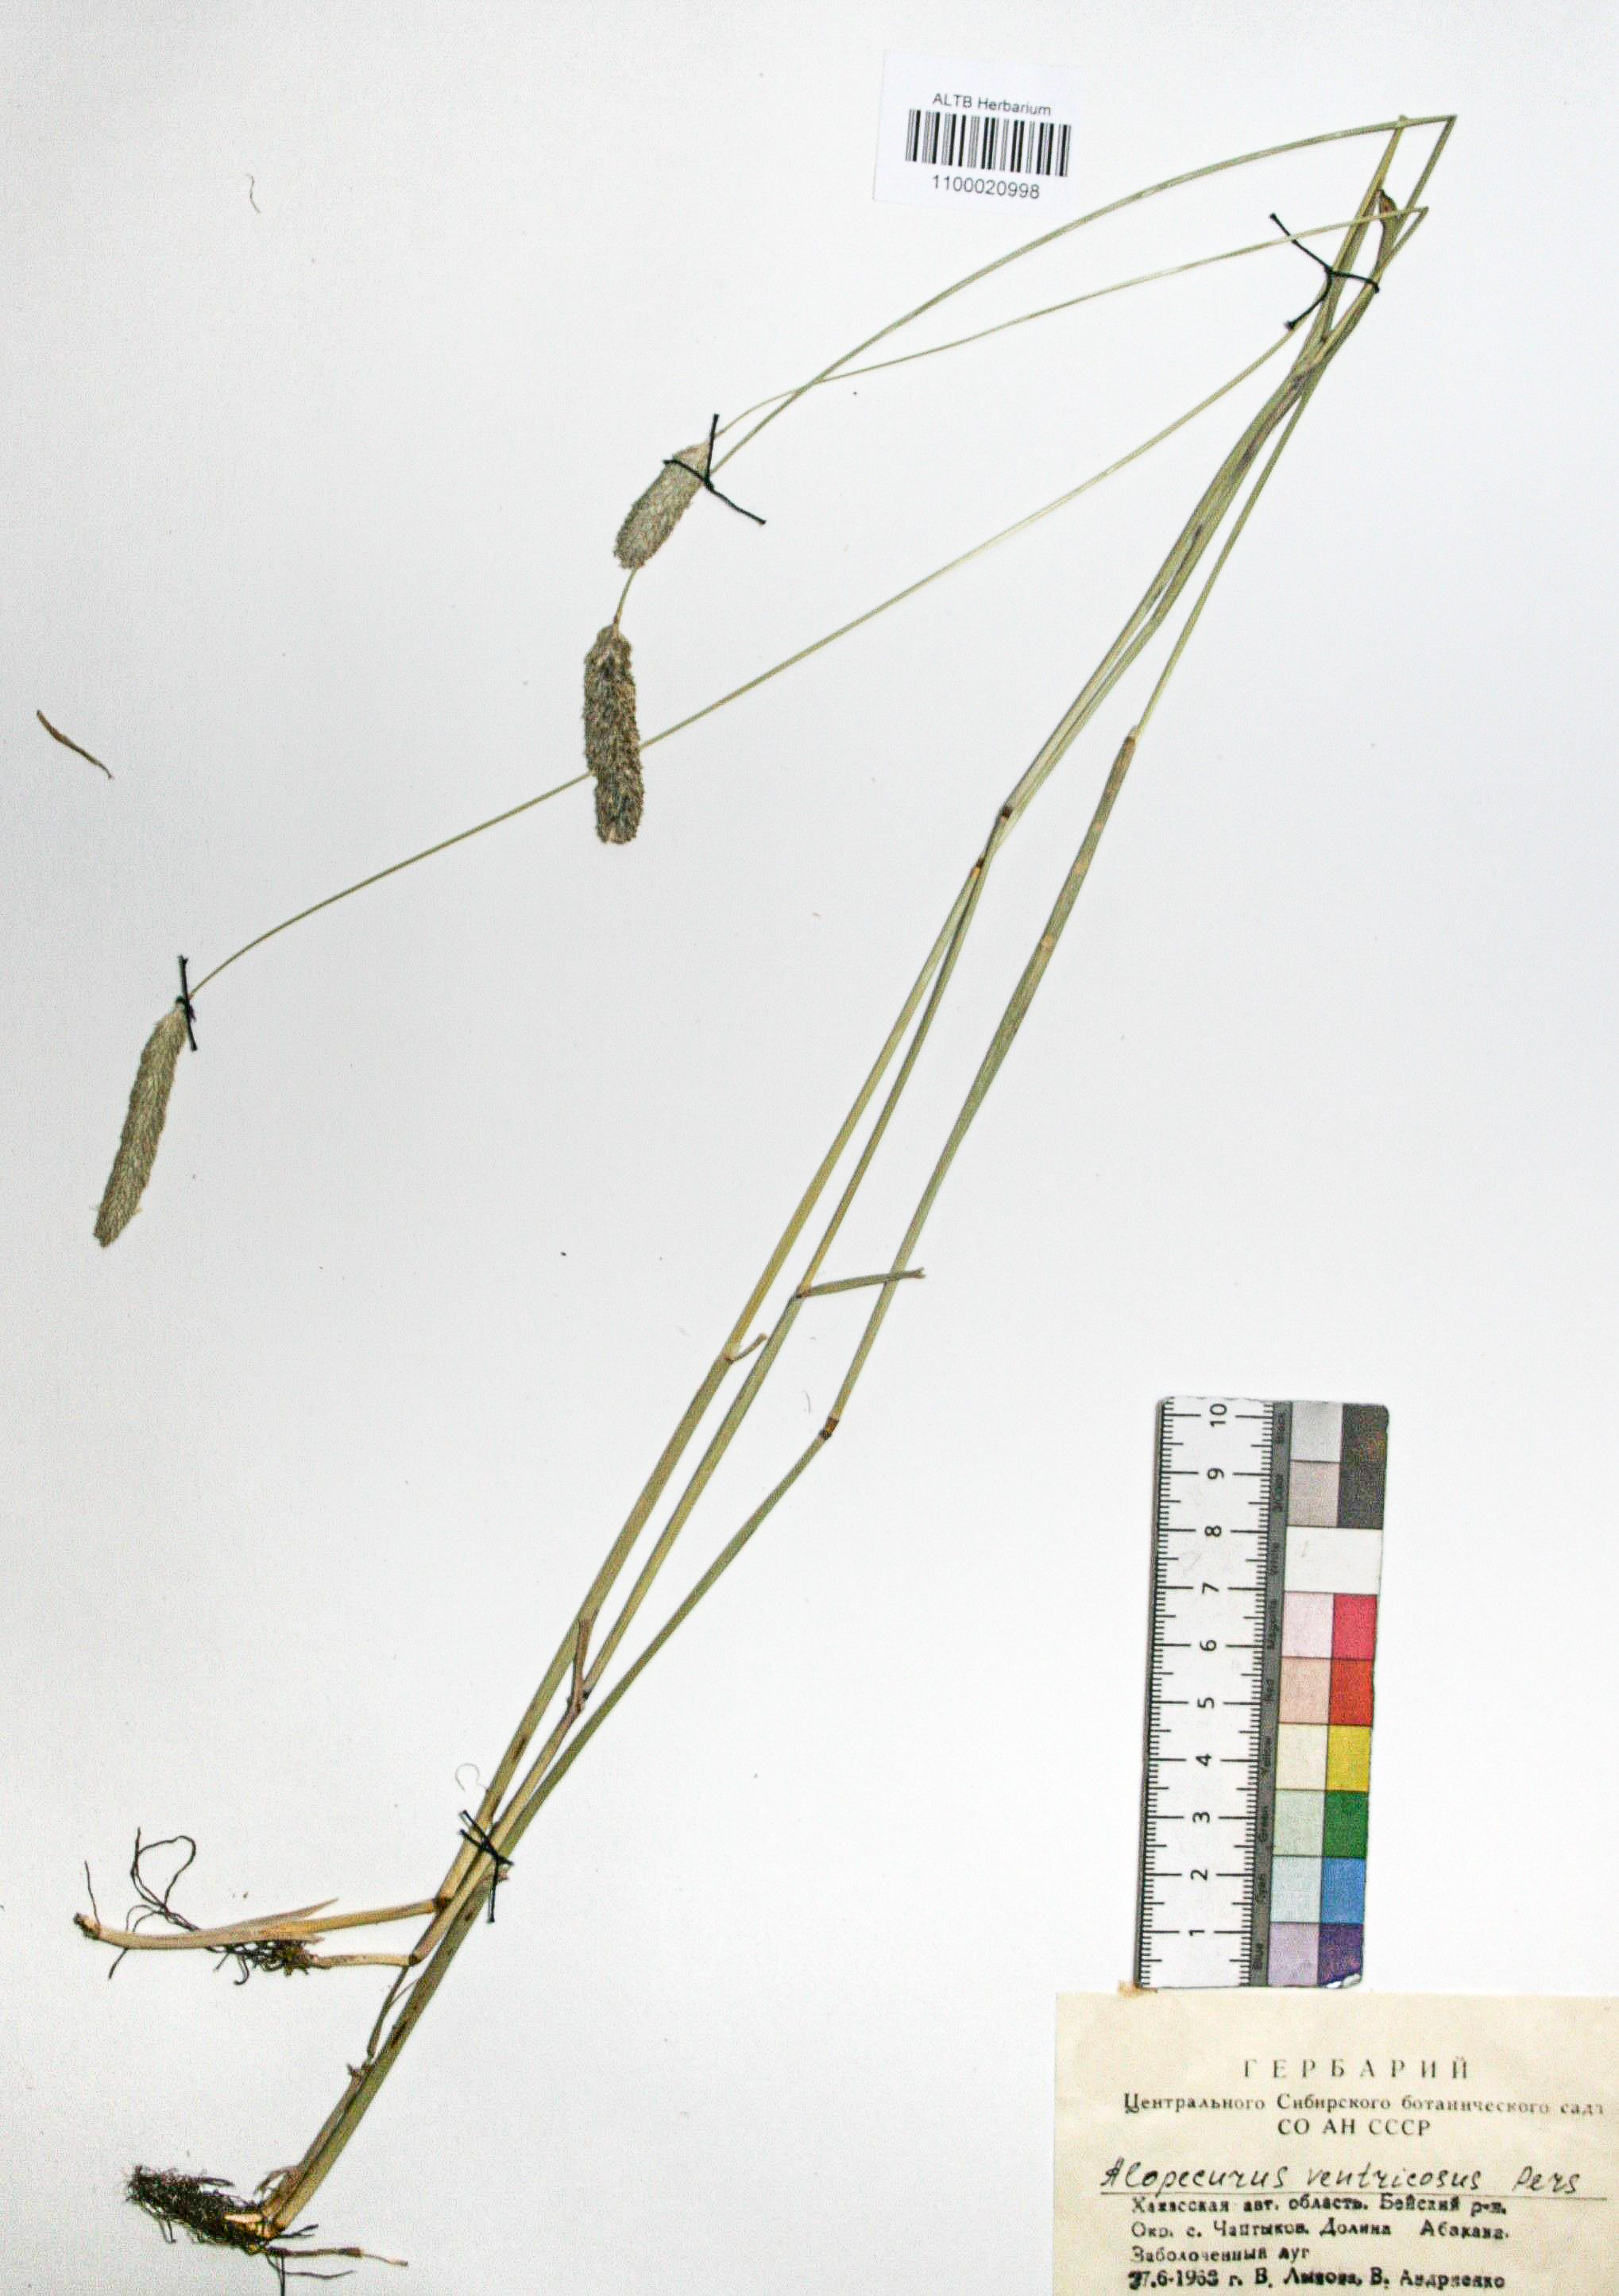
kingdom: Plantae
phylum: Tracheophyta
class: Liliopsida
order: Poales
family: Poaceae
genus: Alopecurus
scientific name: Alopecurus arundinaceus
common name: Creeping meadow foxtail
